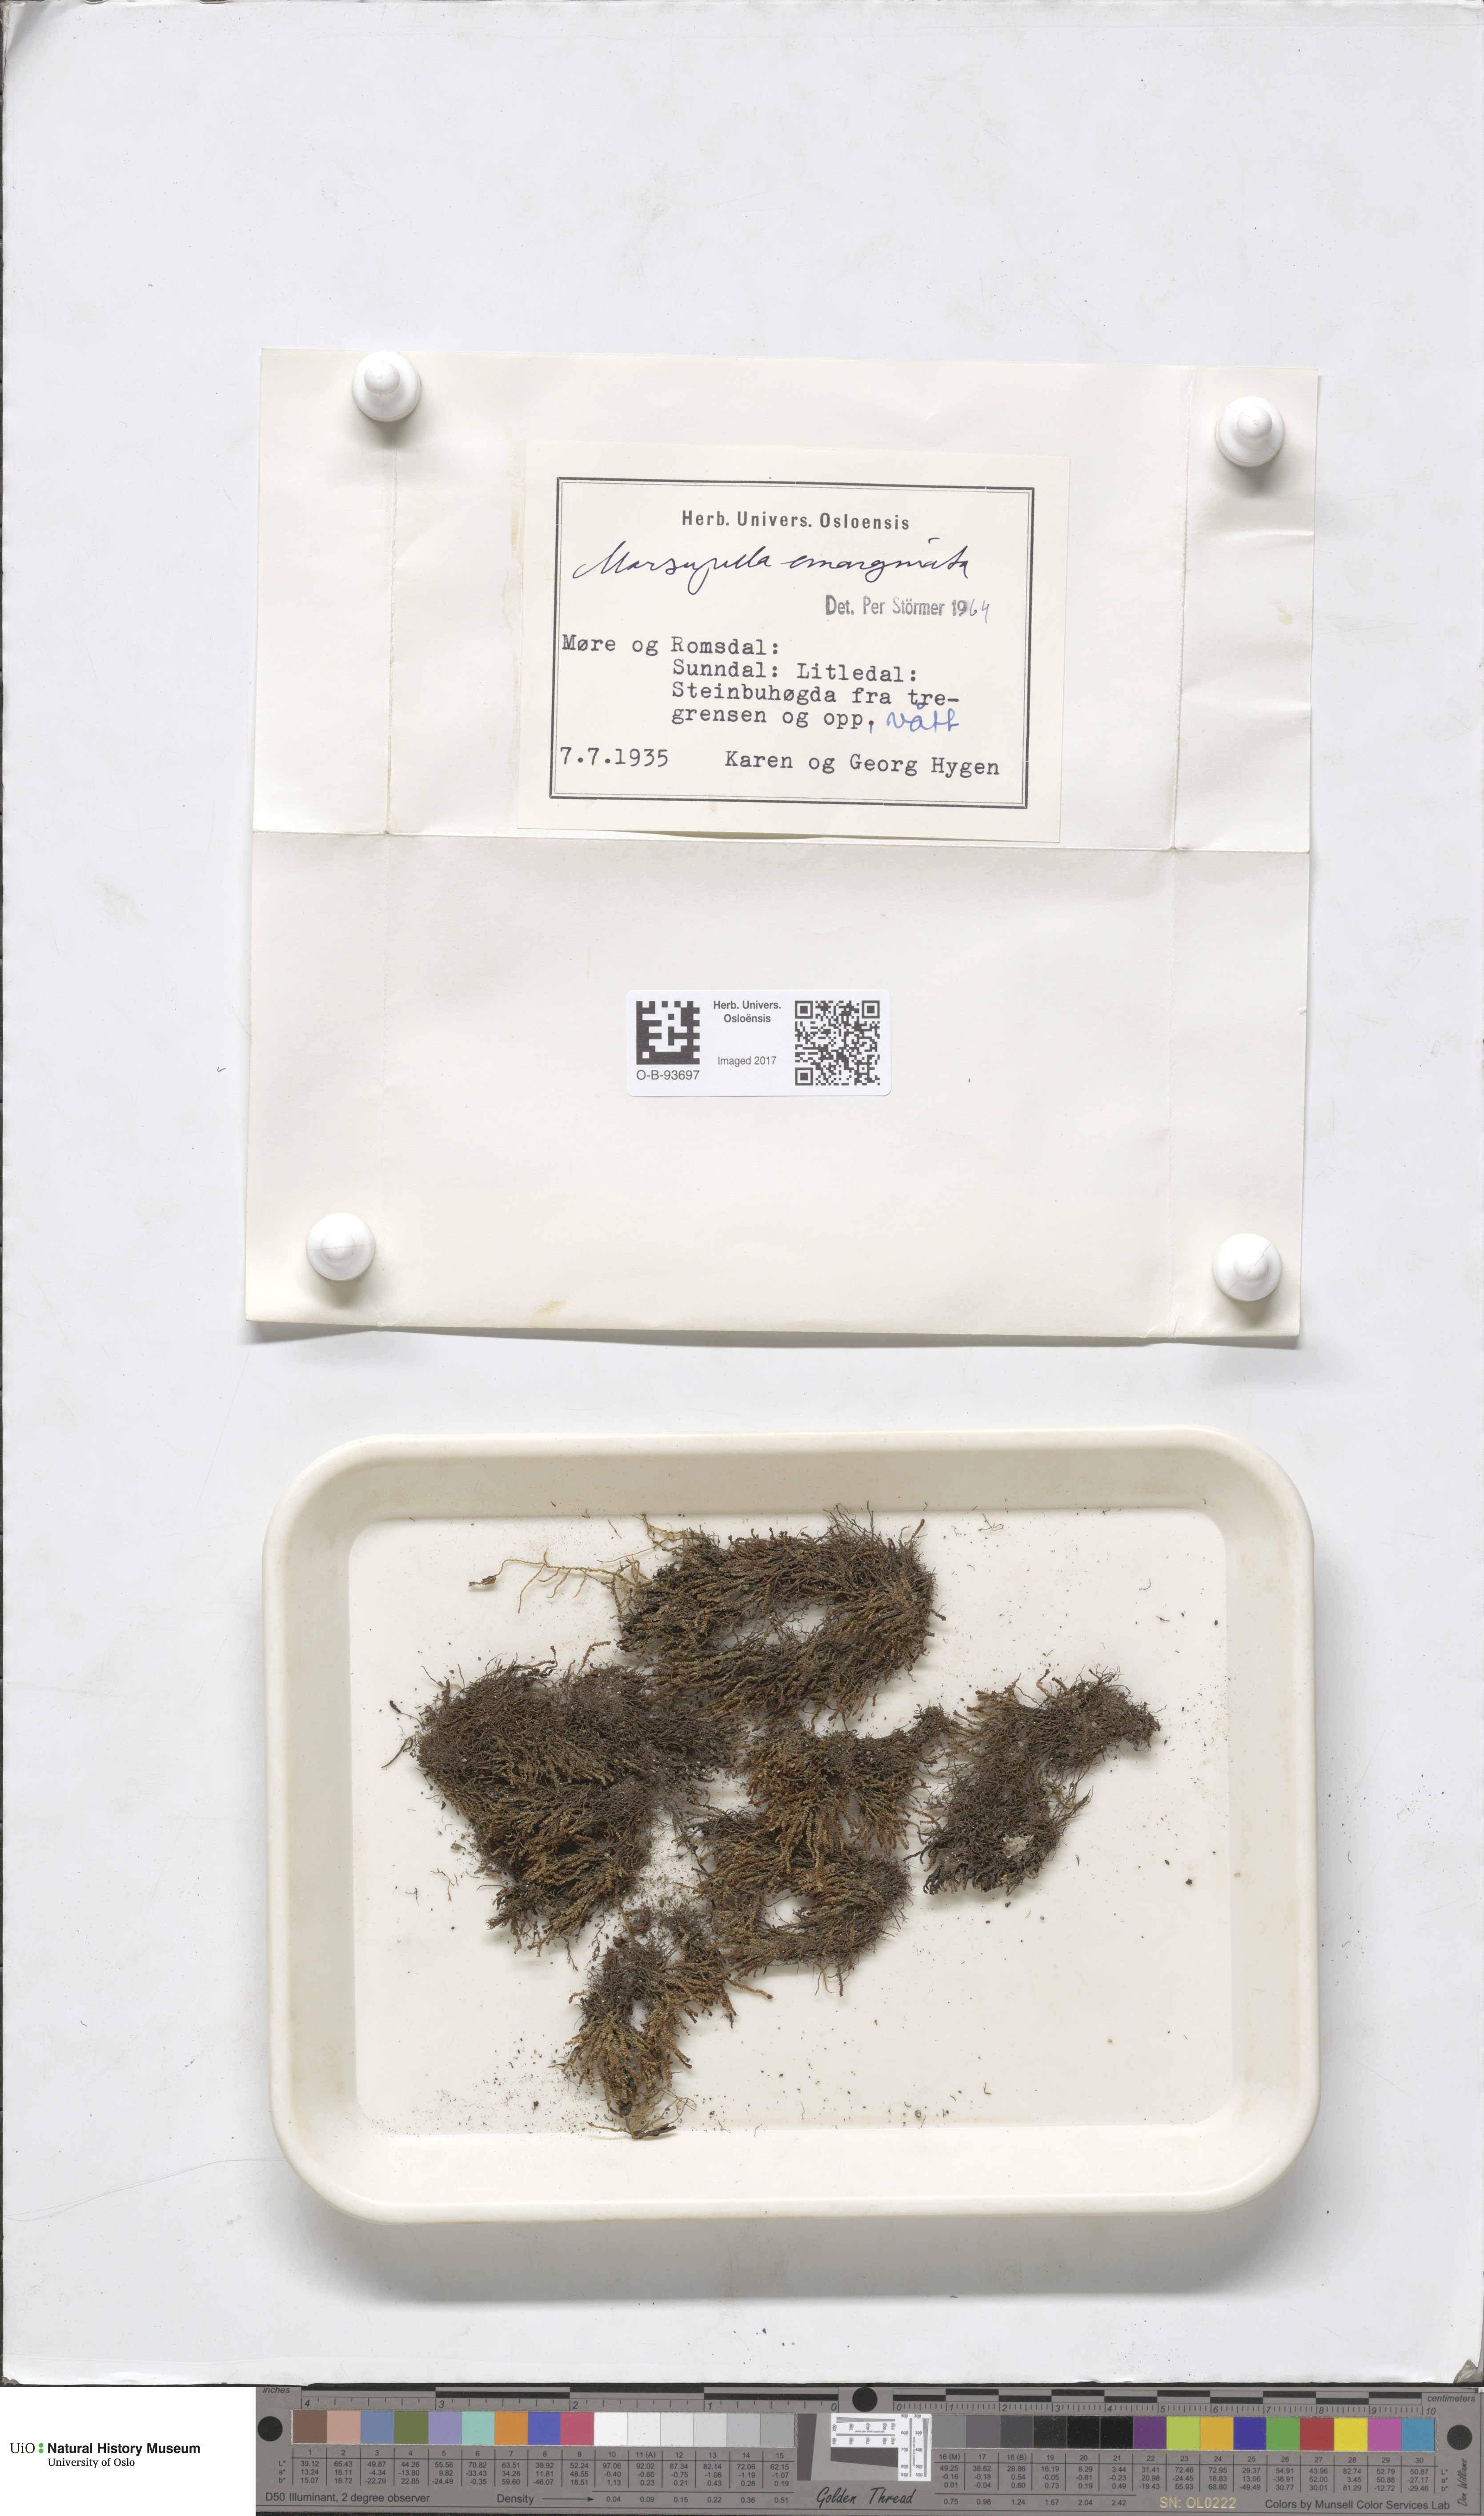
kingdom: Plantae
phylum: Marchantiophyta
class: Jungermanniopsida
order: Jungermanniales
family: Gymnomitriaceae
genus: Marsupella
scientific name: Marsupella emarginata
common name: Notched rustwort
